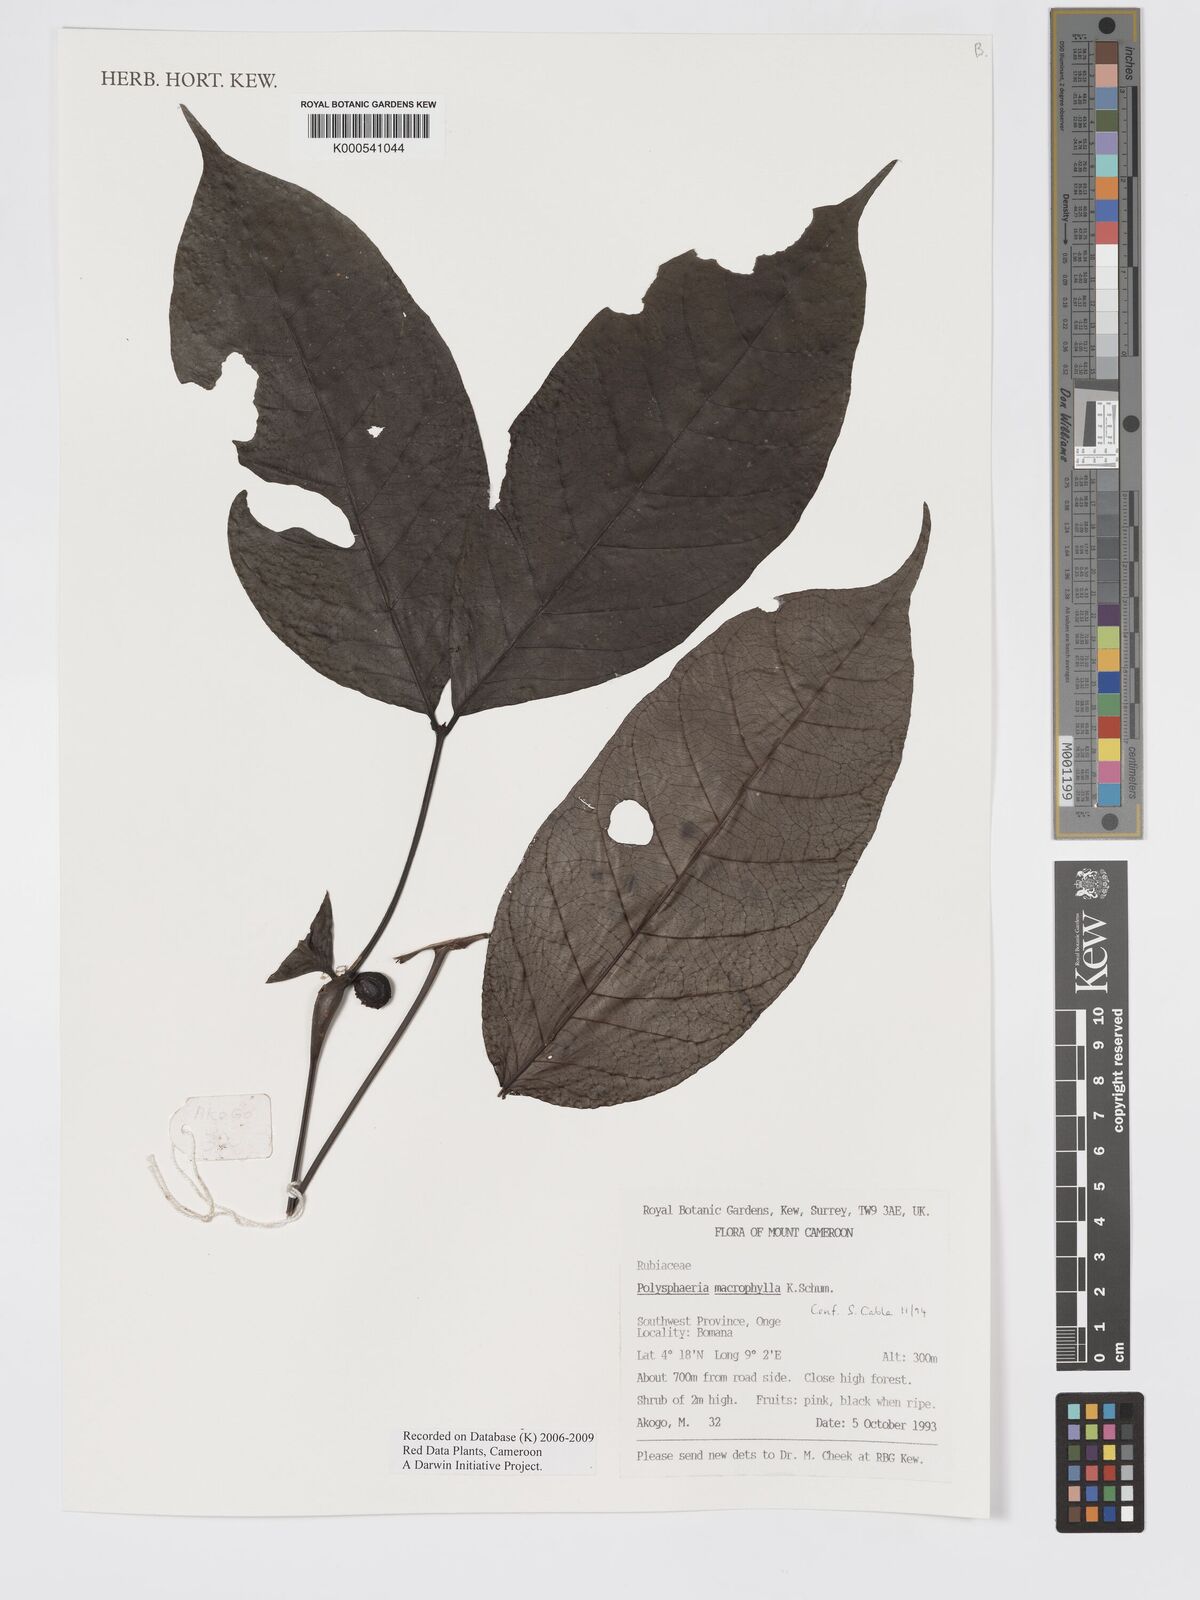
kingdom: Plantae
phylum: Tracheophyta
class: Magnoliopsida
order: Gentianales
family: Rubiaceae
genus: Polysphaeria
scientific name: Polysphaeria macrophylla
